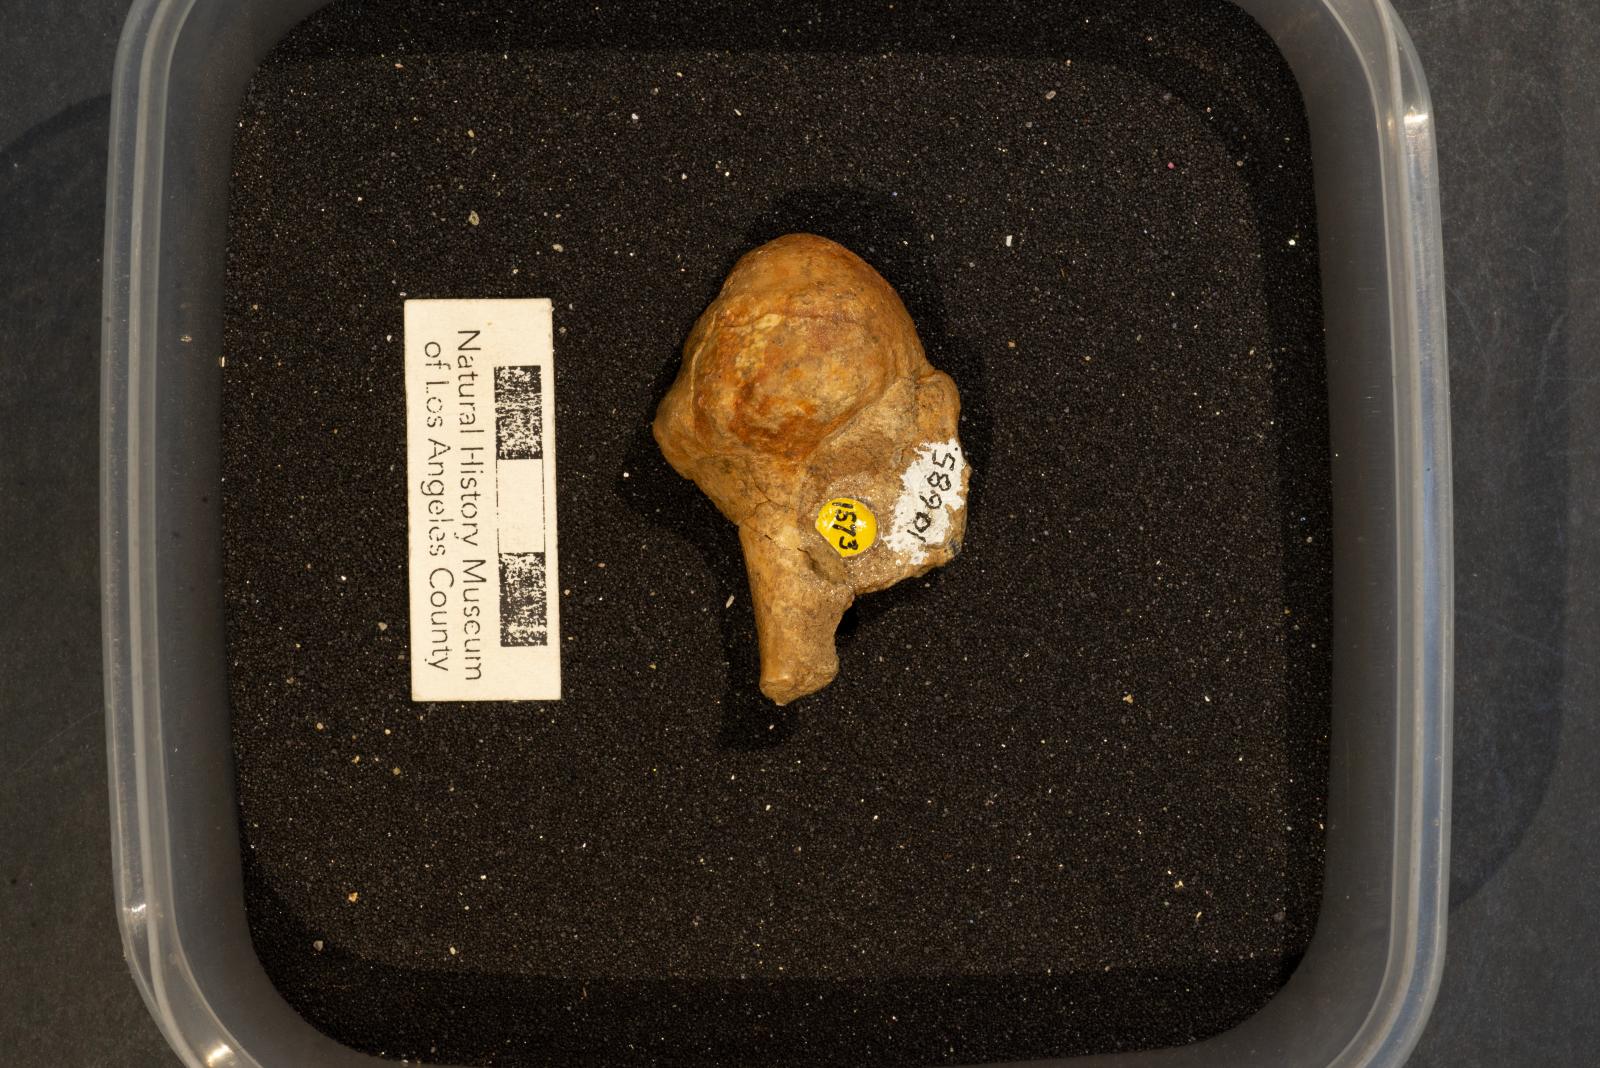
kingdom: Animalia
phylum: Mollusca
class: Gastropoda
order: Neogastropoda
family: Tudiclidae
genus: Cophocara
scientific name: Cophocara stantoni
